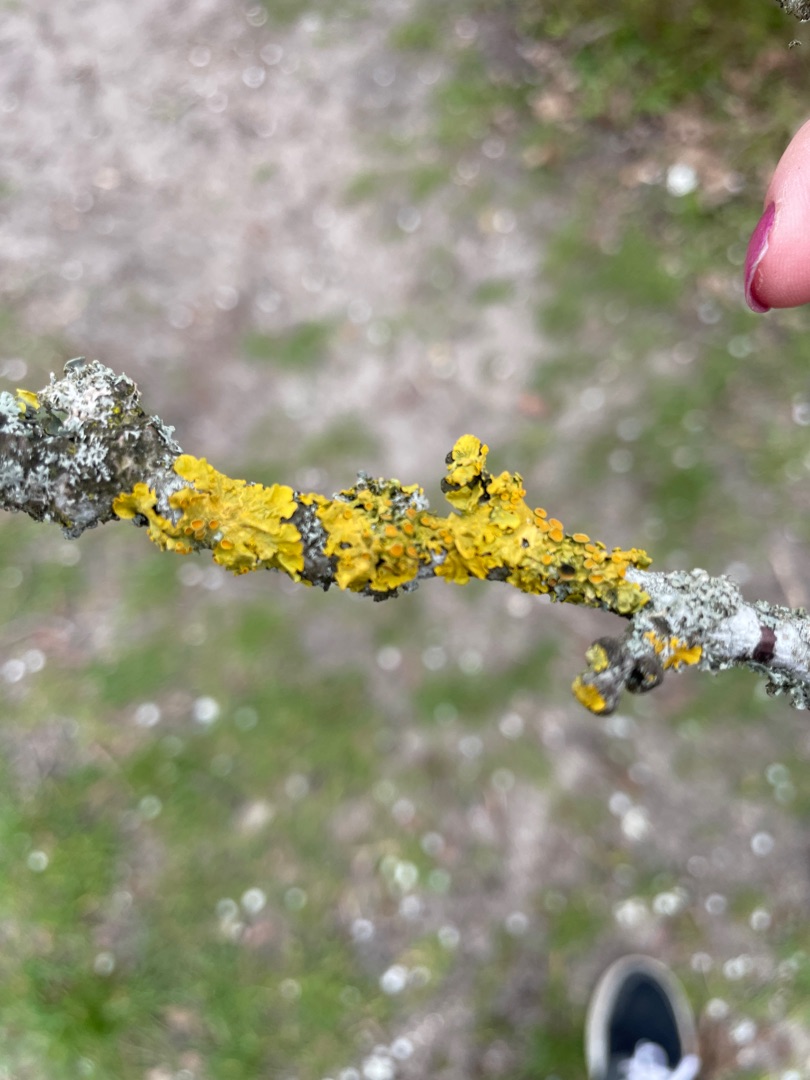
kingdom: Fungi
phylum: Ascomycota
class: Lecanoromycetes
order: Teloschistales
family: Teloschistaceae
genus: Xanthoria
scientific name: Xanthoria parietina
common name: Almindelig væggelav
